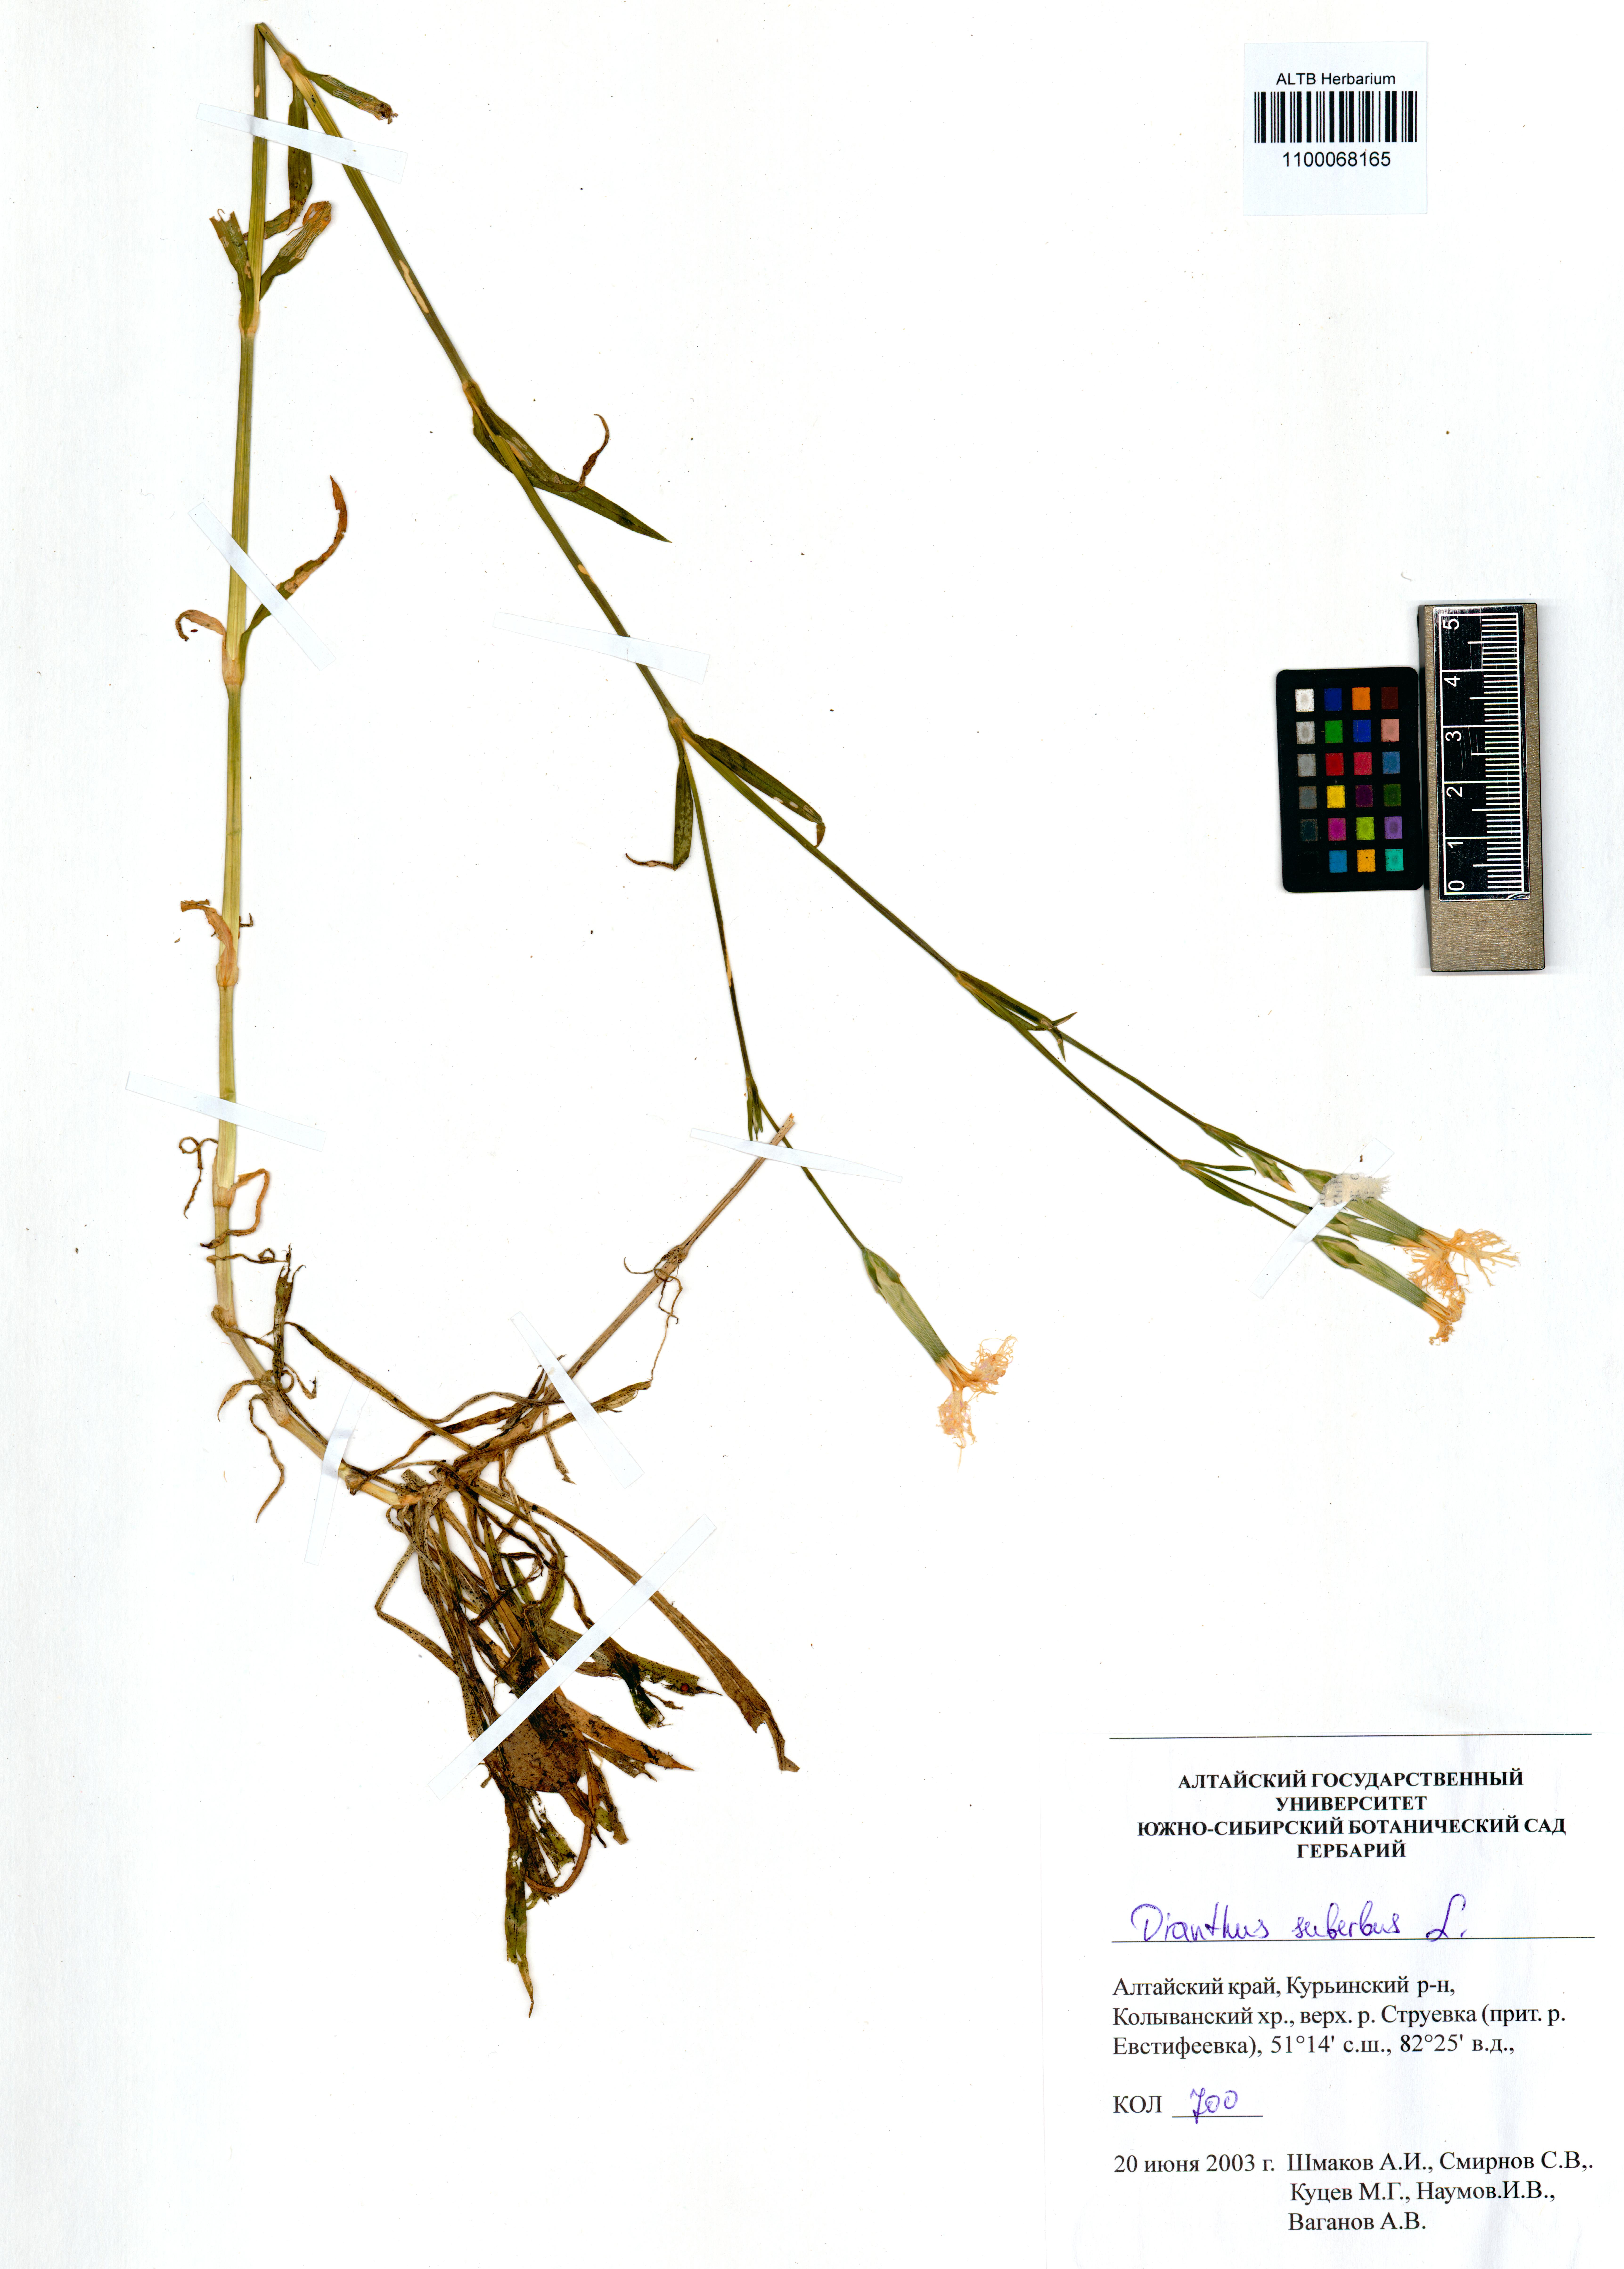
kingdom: Plantae
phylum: Tracheophyta
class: Magnoliopsida
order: Caryophyllales
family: Caryophyllaceae
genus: Dianthus
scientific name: Dianthus superbus
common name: Fringed pink
